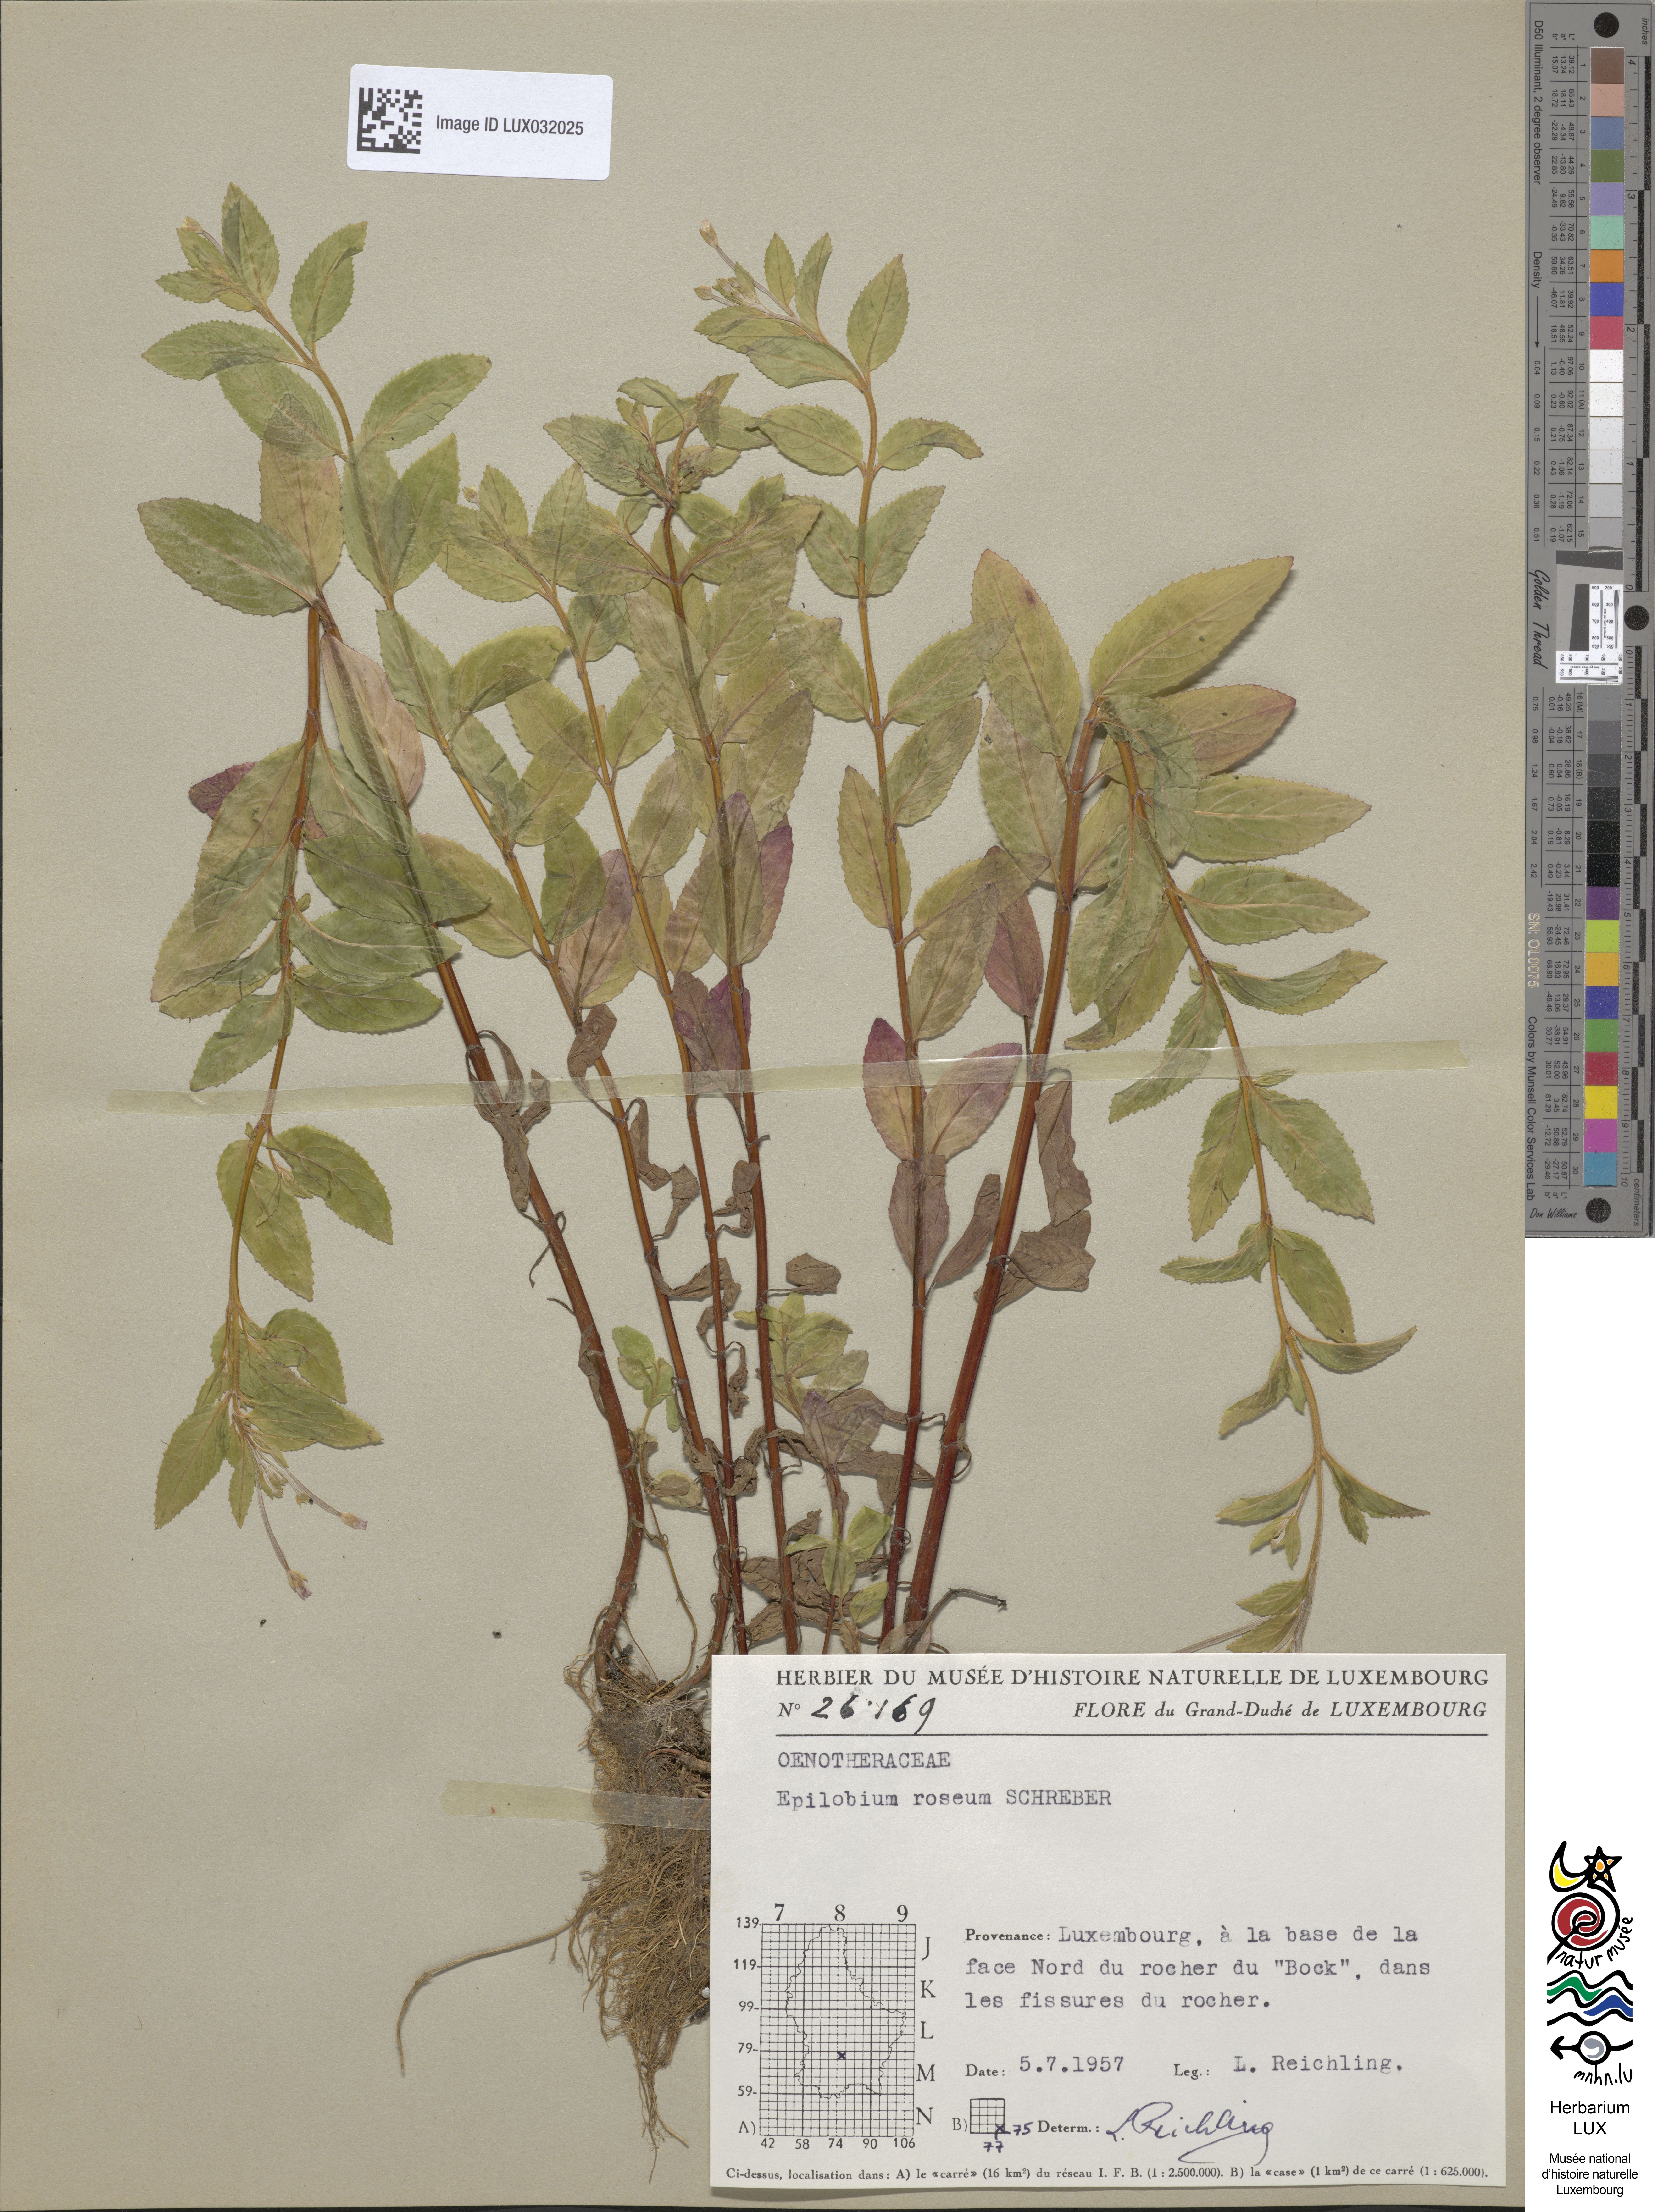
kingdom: Plantae
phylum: Tracheophyta
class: Magnoliopsida
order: Myrtales
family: Onagraceae
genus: Epilobium
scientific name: Epilobium roseum
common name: Pale willowherb
